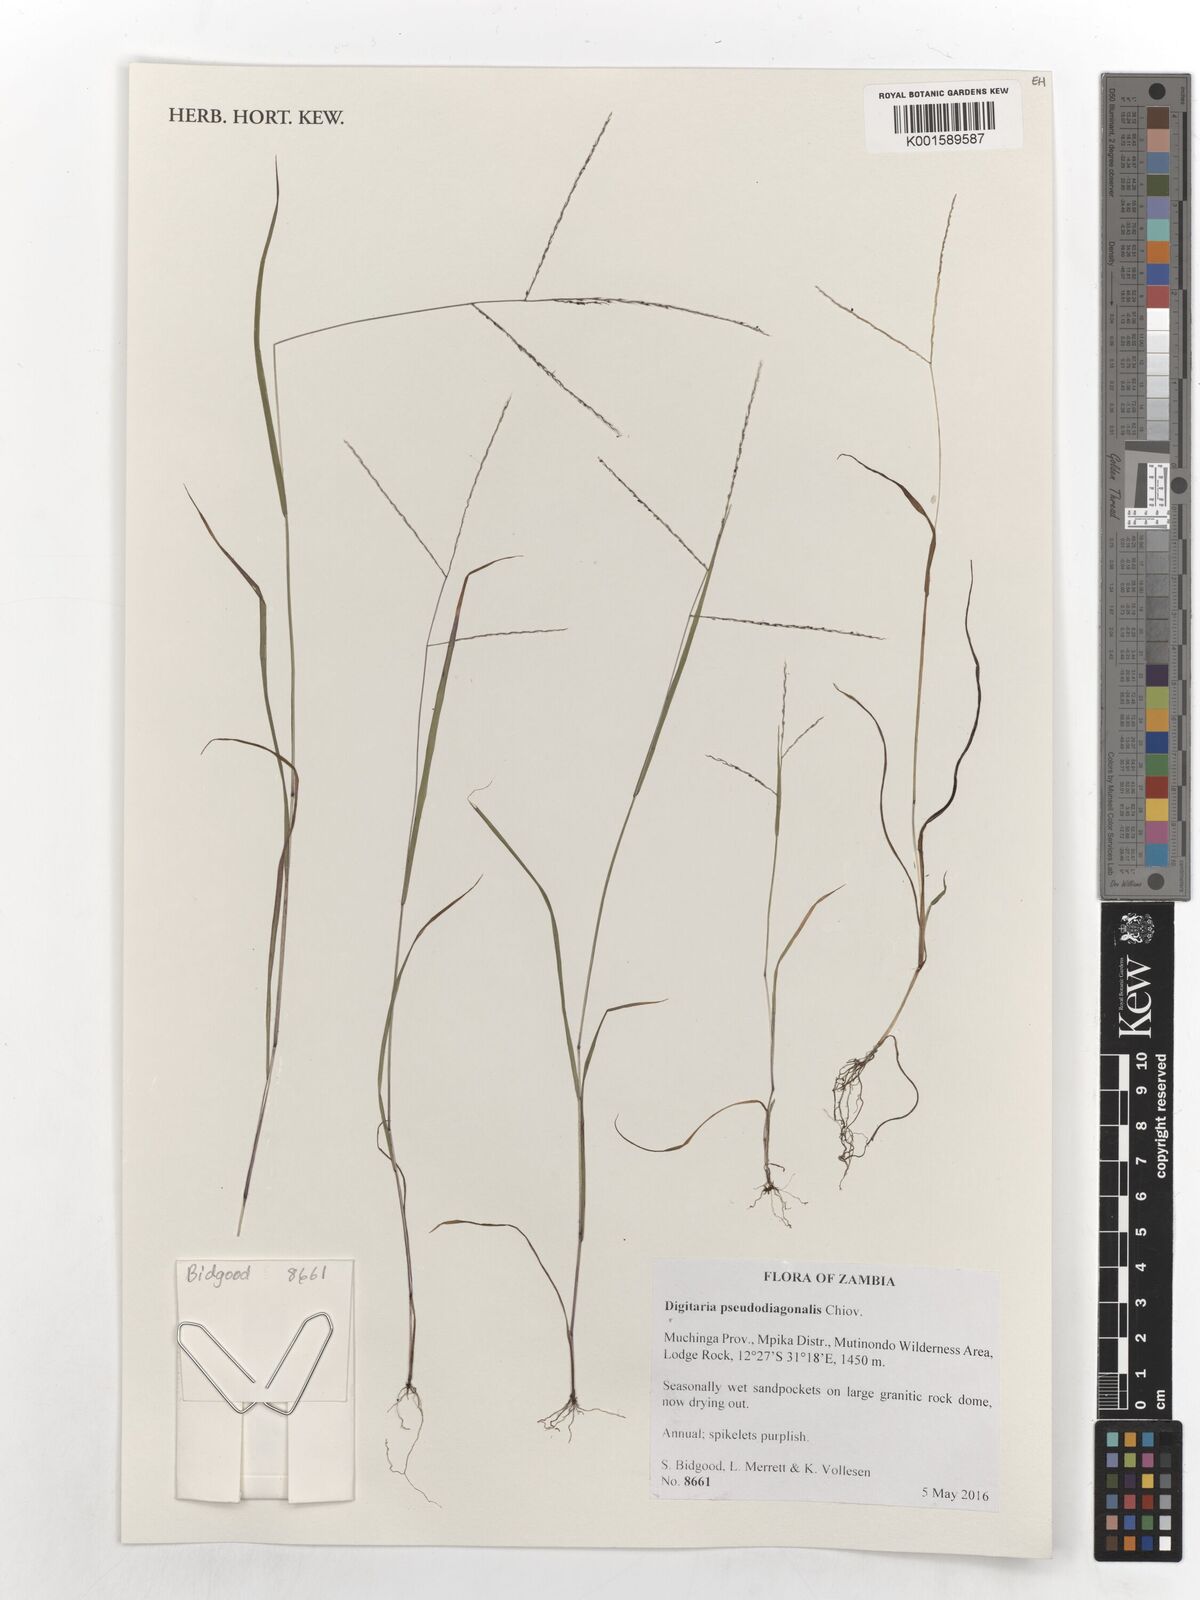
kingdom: Plantae
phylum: Tracheophyta
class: Liliopsida
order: Poales
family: Poaceae
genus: Digitaria
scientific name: Digitaria pseudodiagonalis
